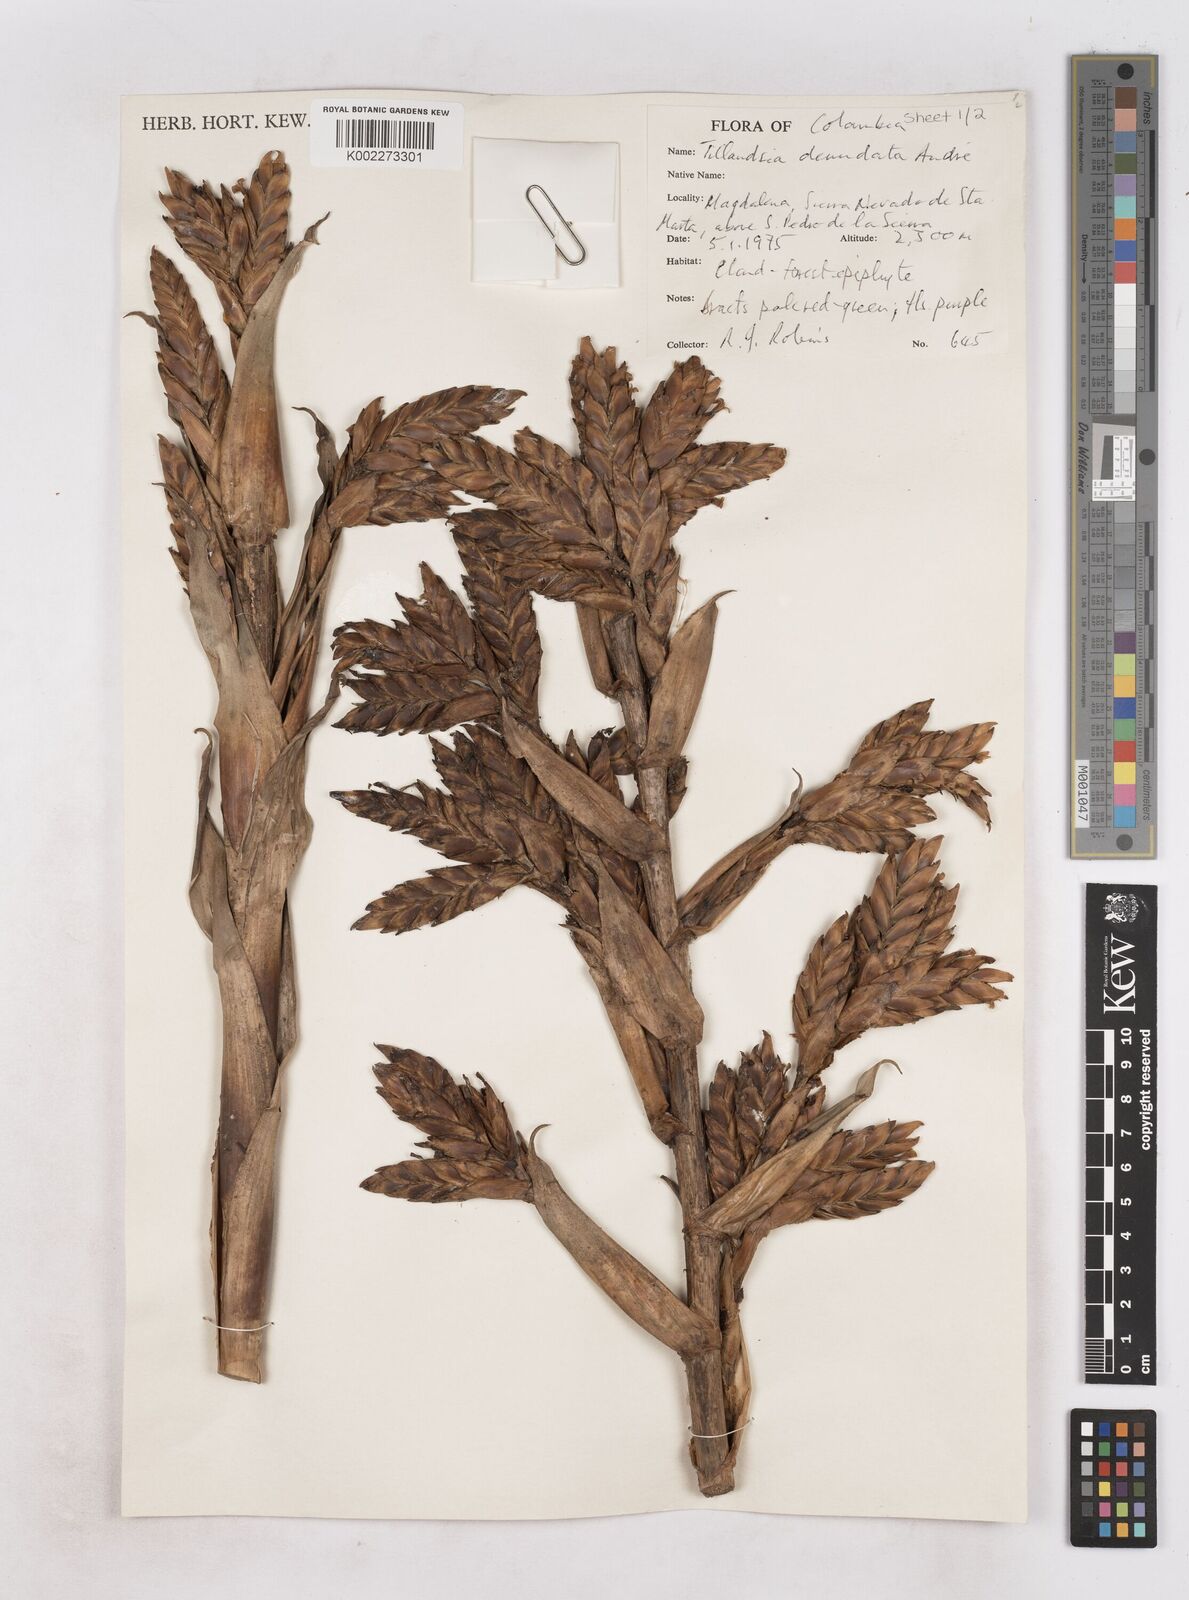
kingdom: Plantae
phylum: Tracheophyta
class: Liliopsida
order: Poales
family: Bromeliaceae
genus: Tillandsia
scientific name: Tillandsia denudata
